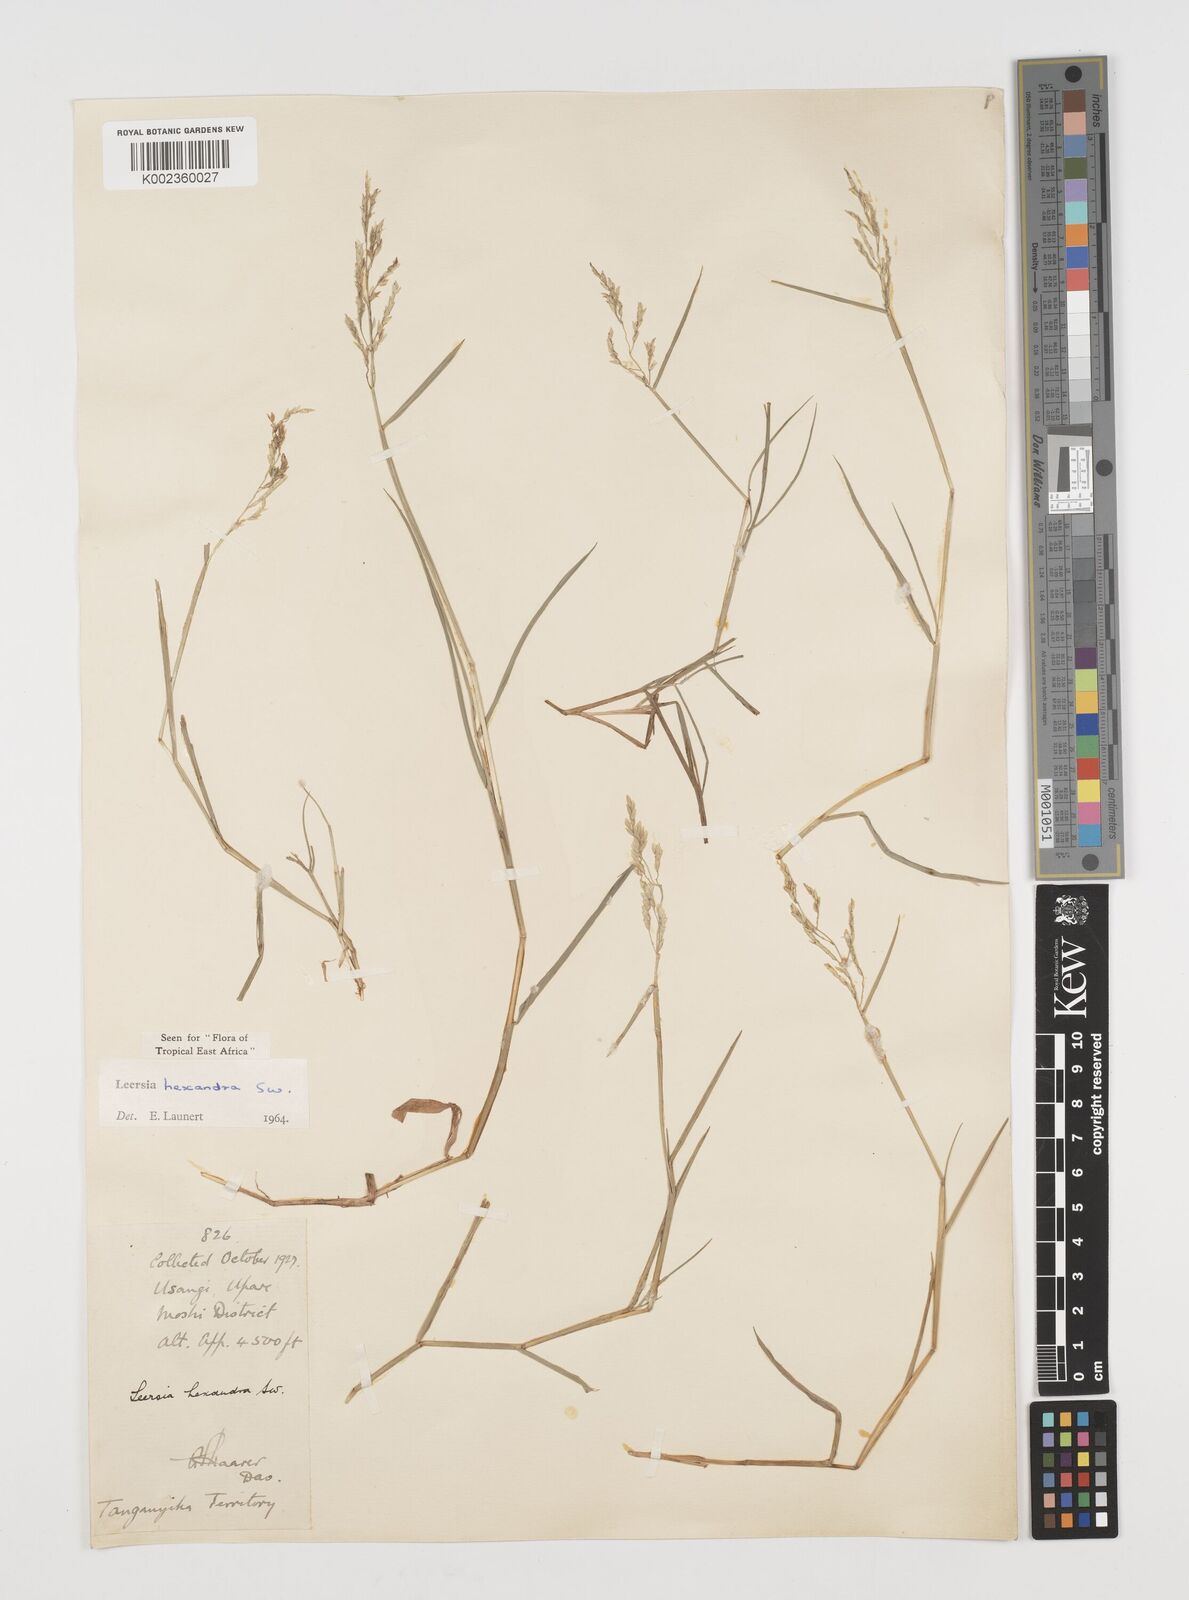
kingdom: Plantae
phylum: Tracheophyta
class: Liliopsida
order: Poales
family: Poaceae
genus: Leersia
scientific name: Leersia hexandra
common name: Southern cut grass
